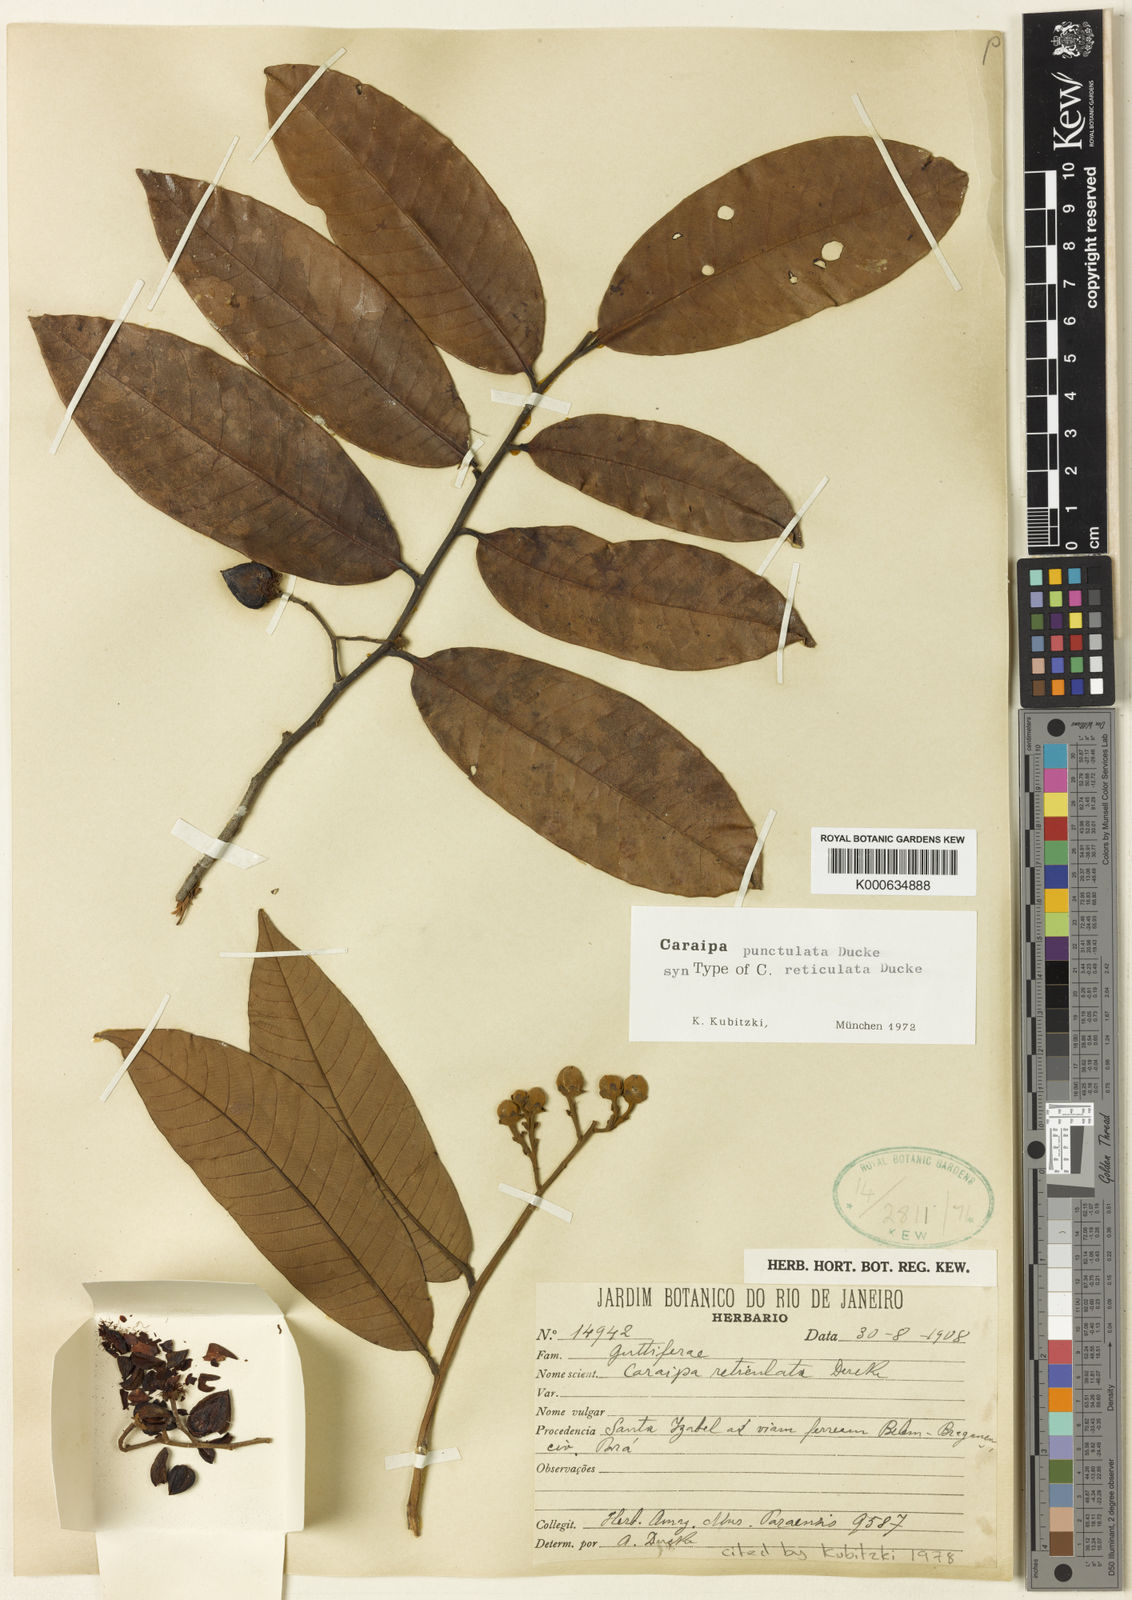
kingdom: Plantae
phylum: Tracheophyta
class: Magnoliopsida
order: Malpighiales
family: Calophyllaceae
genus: Caraipa
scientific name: Caraipa
